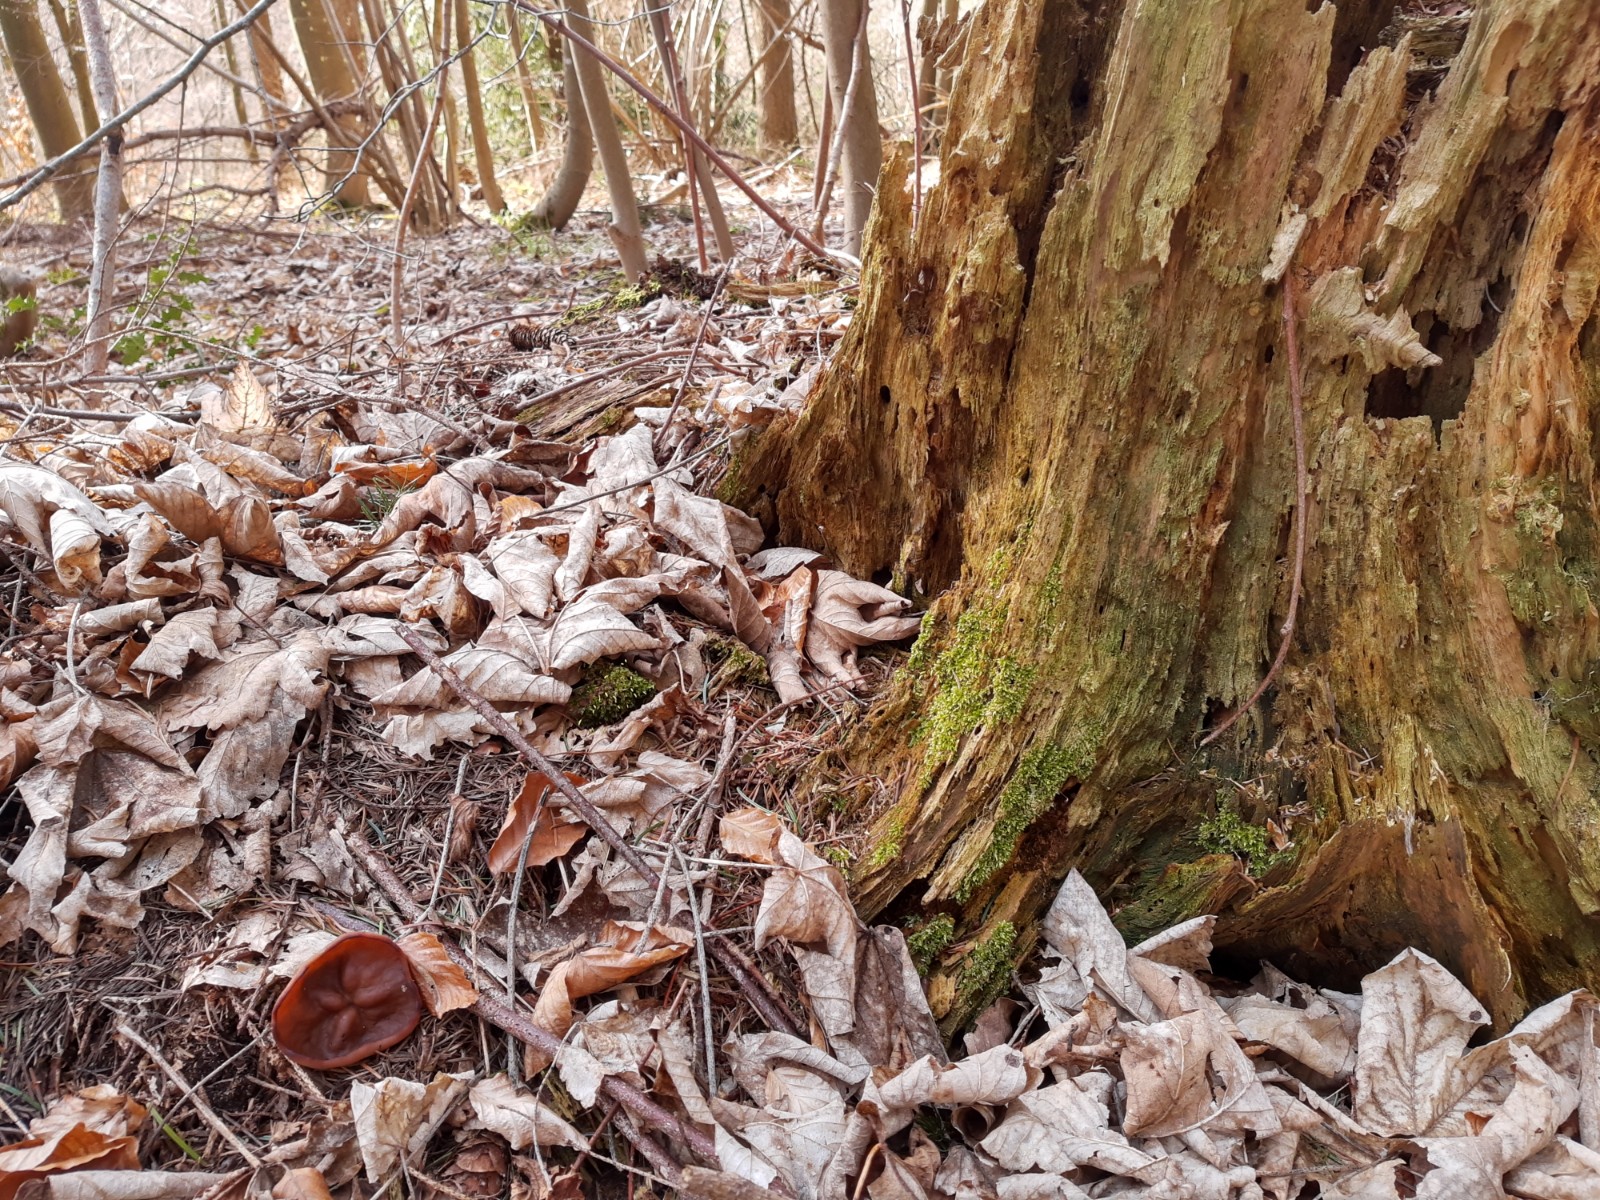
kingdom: Fungi
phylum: Ascomycota
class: Pezizomycetes
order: Pezizales
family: Discinaceae
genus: Discina
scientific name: Discina ancilis
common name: udbredt stenmorkel
